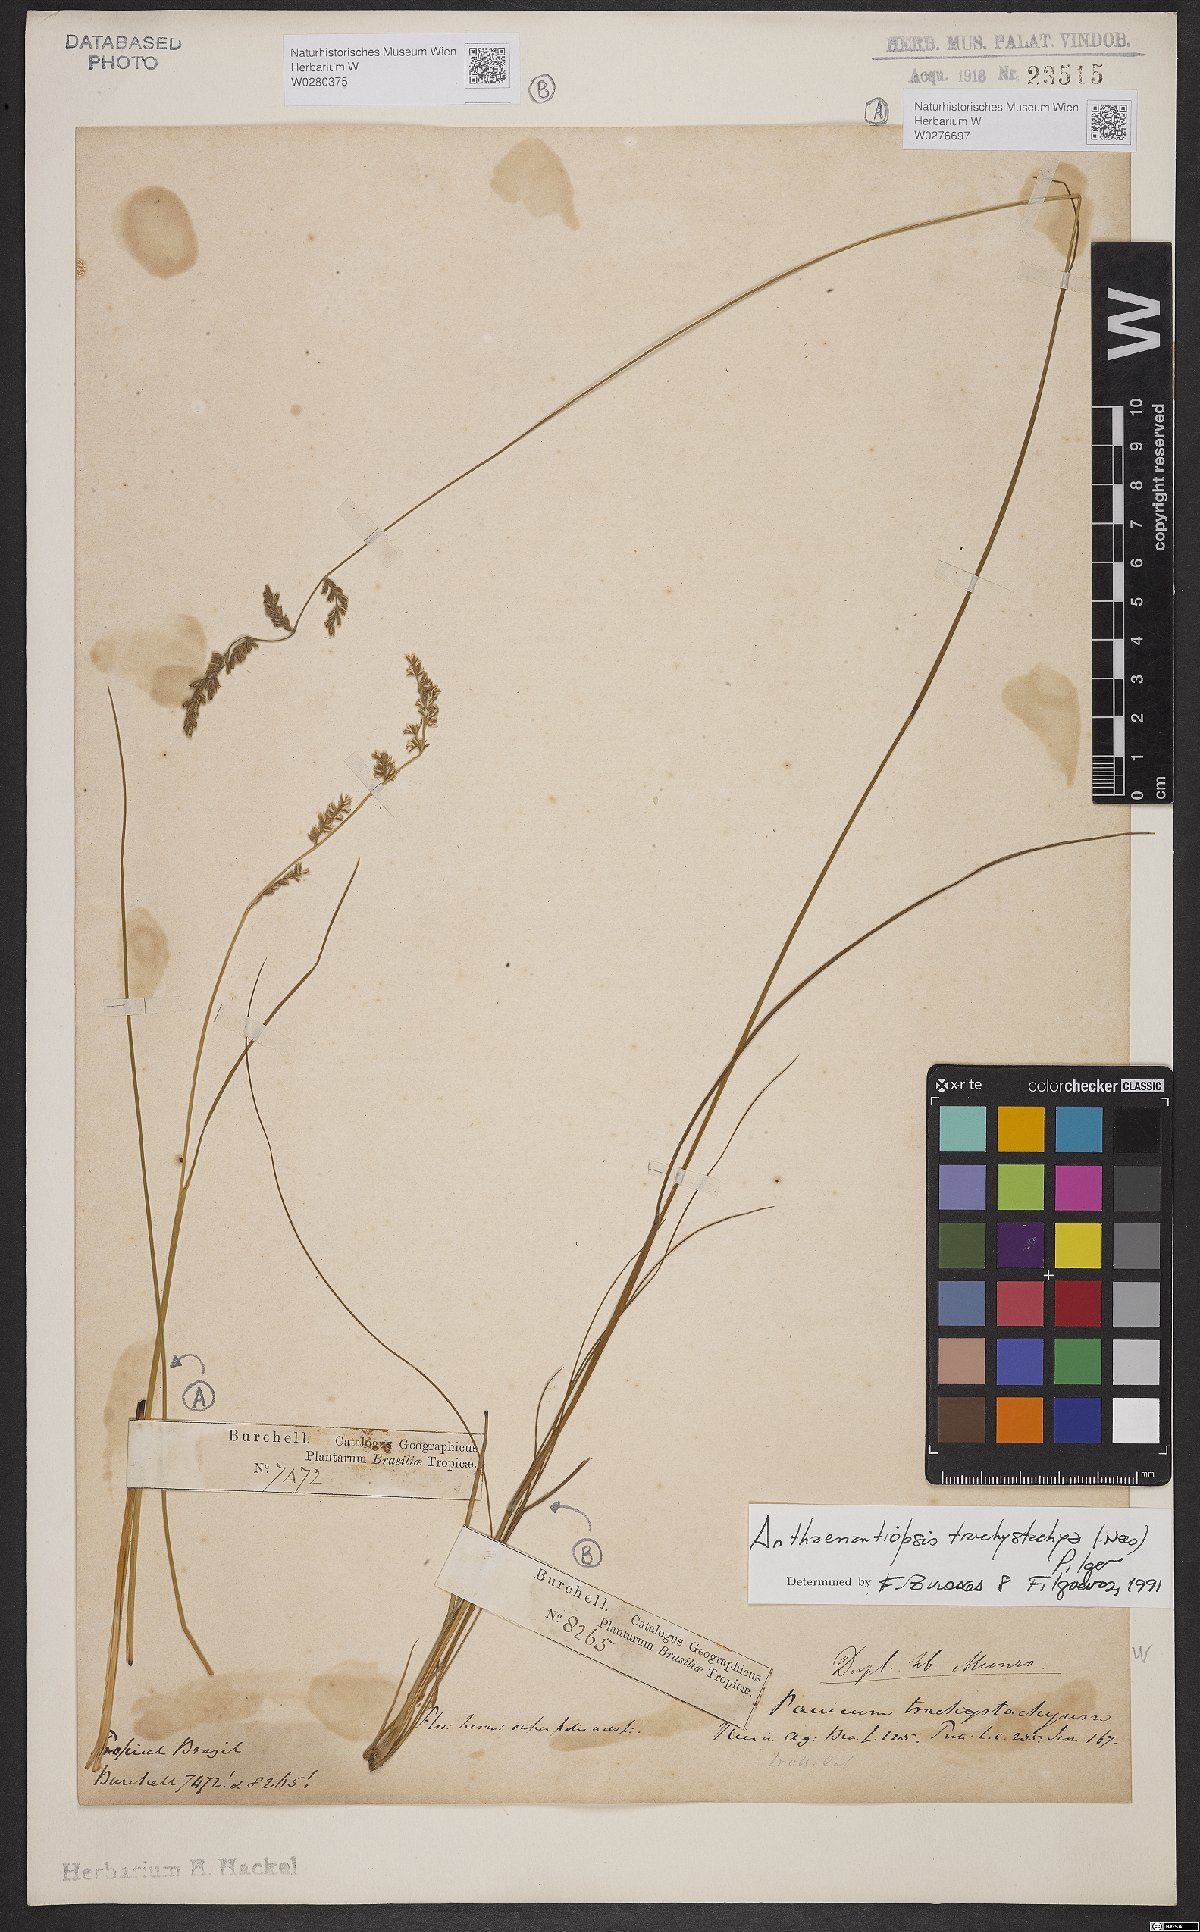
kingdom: Plantae
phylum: Tracheophyta
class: Liliopsida
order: Poales
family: Poaceae
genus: Anthaenantiopsis
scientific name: Anthaenantiopsis trachystachya
